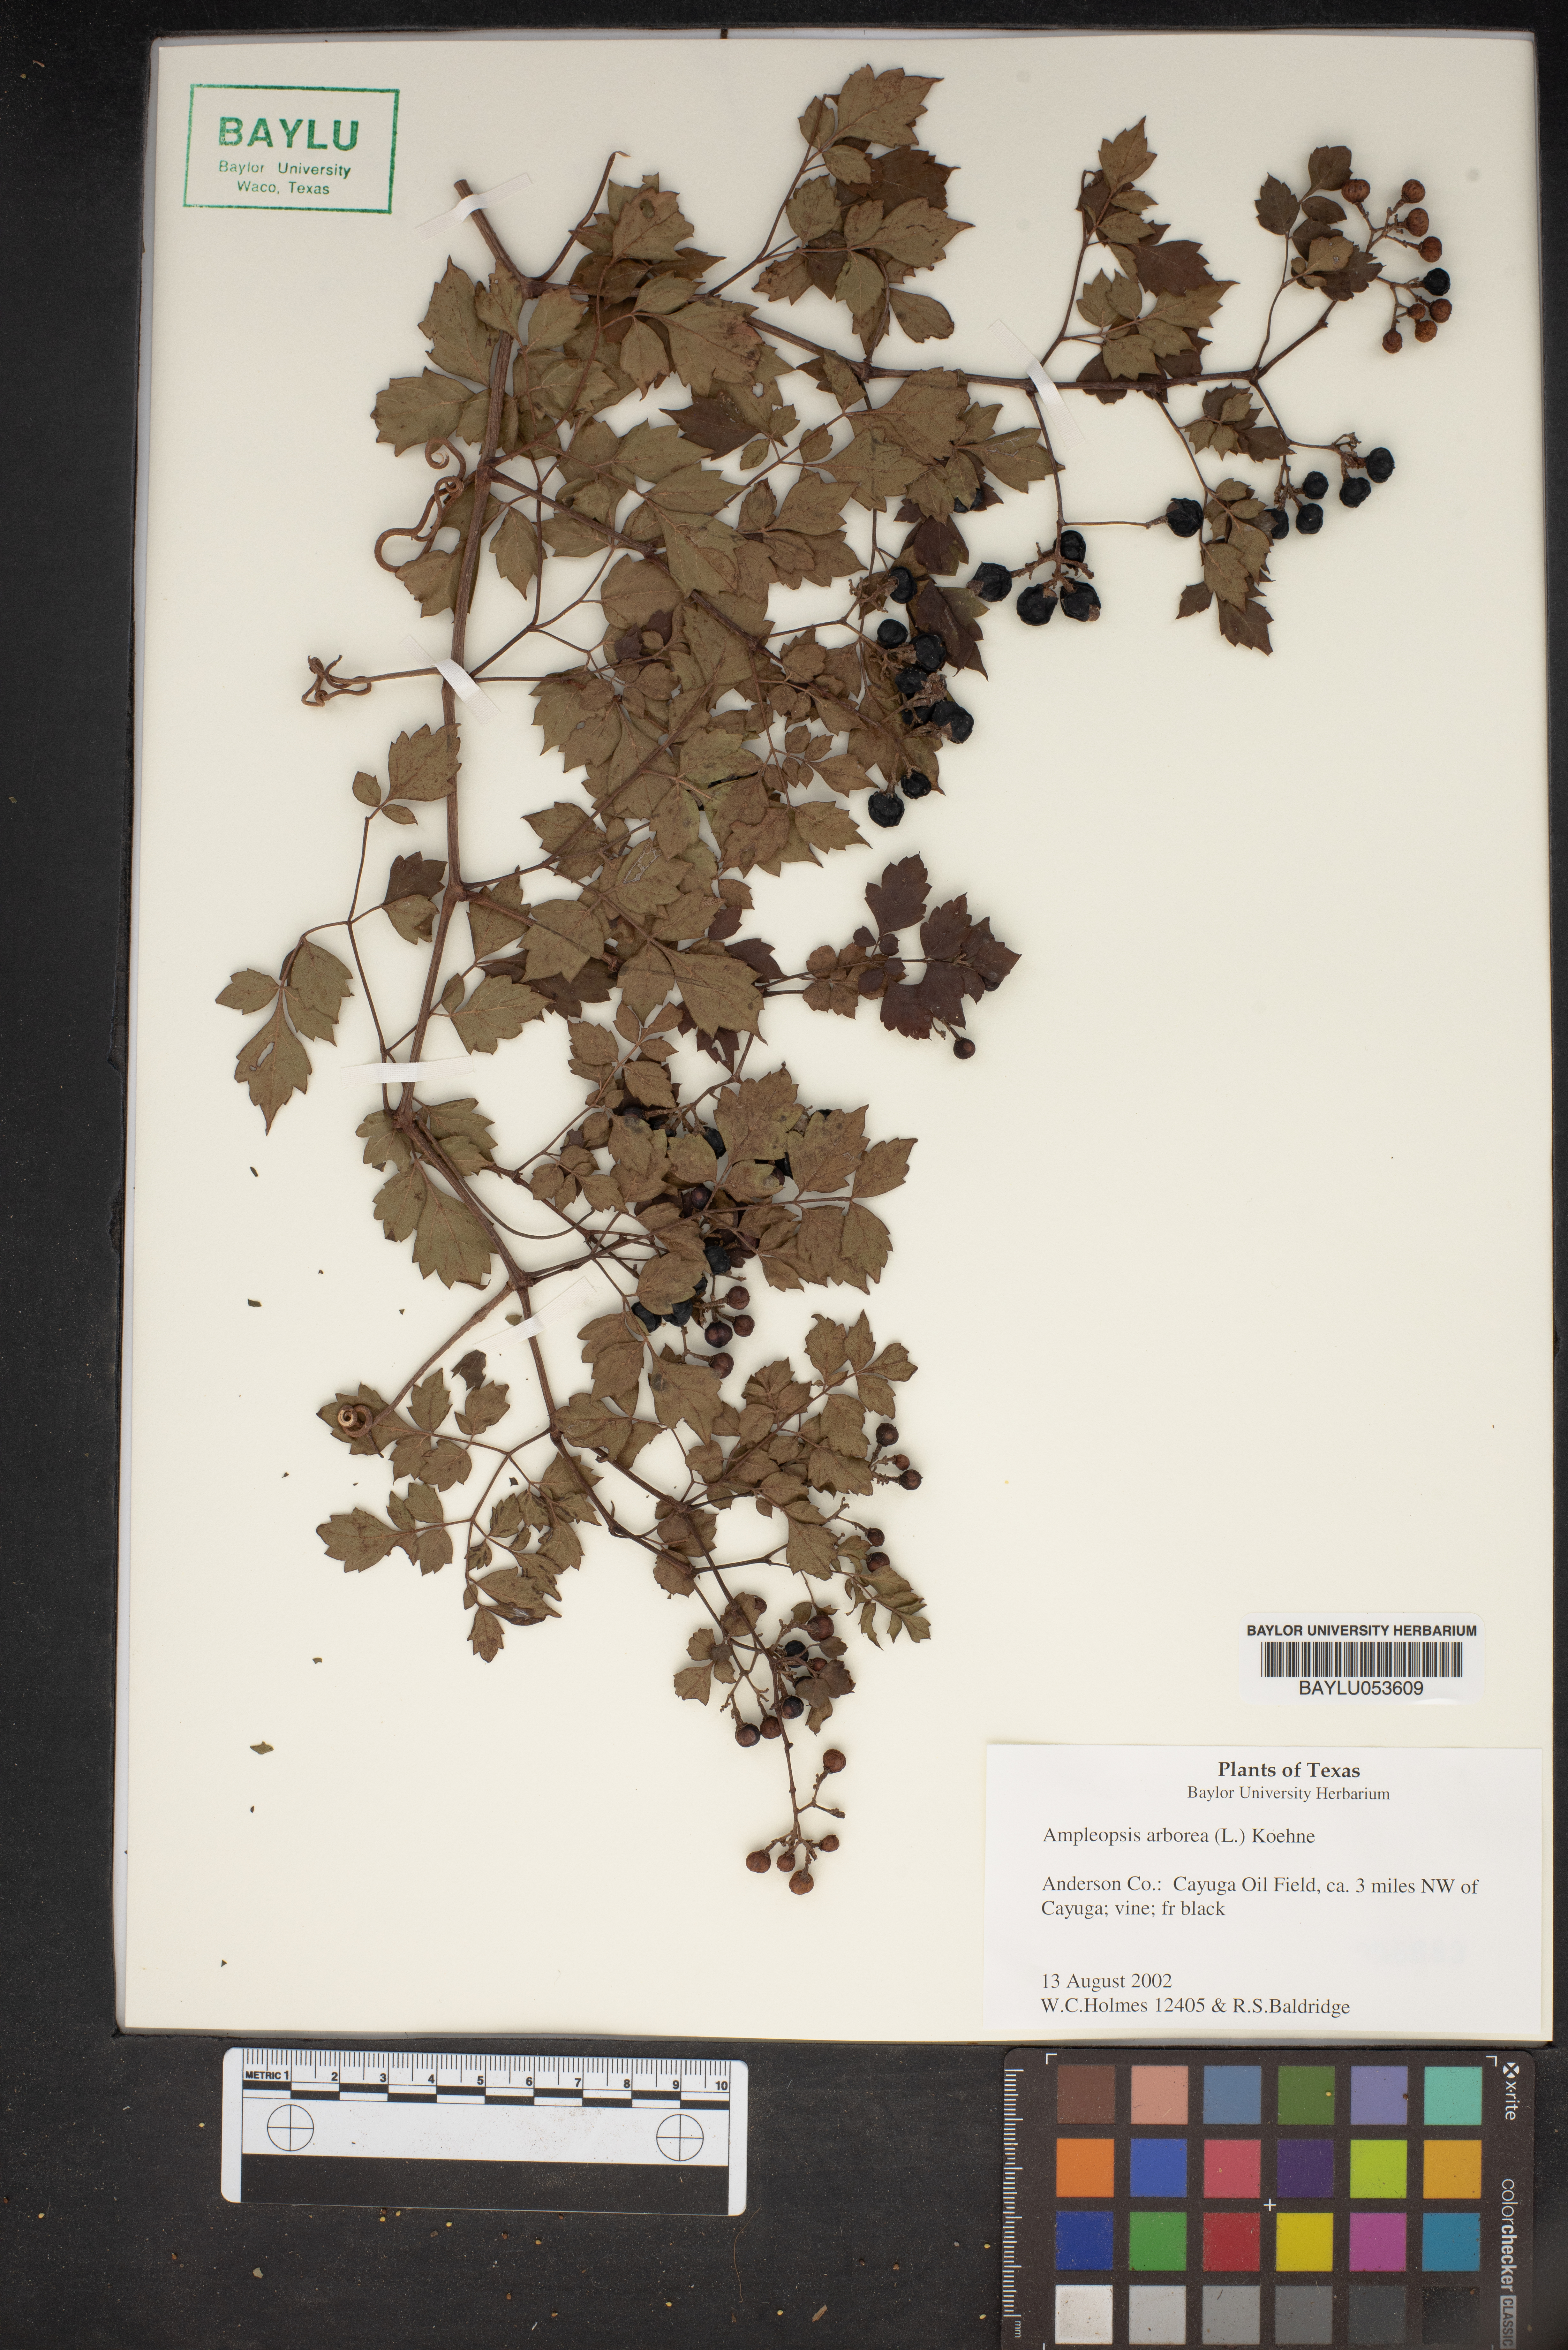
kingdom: Plantae
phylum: Tracheophyta
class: Magnoliopsida
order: Vitales
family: Vitaceae
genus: Nekemias
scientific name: Nekemias arborea
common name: Peppervine
